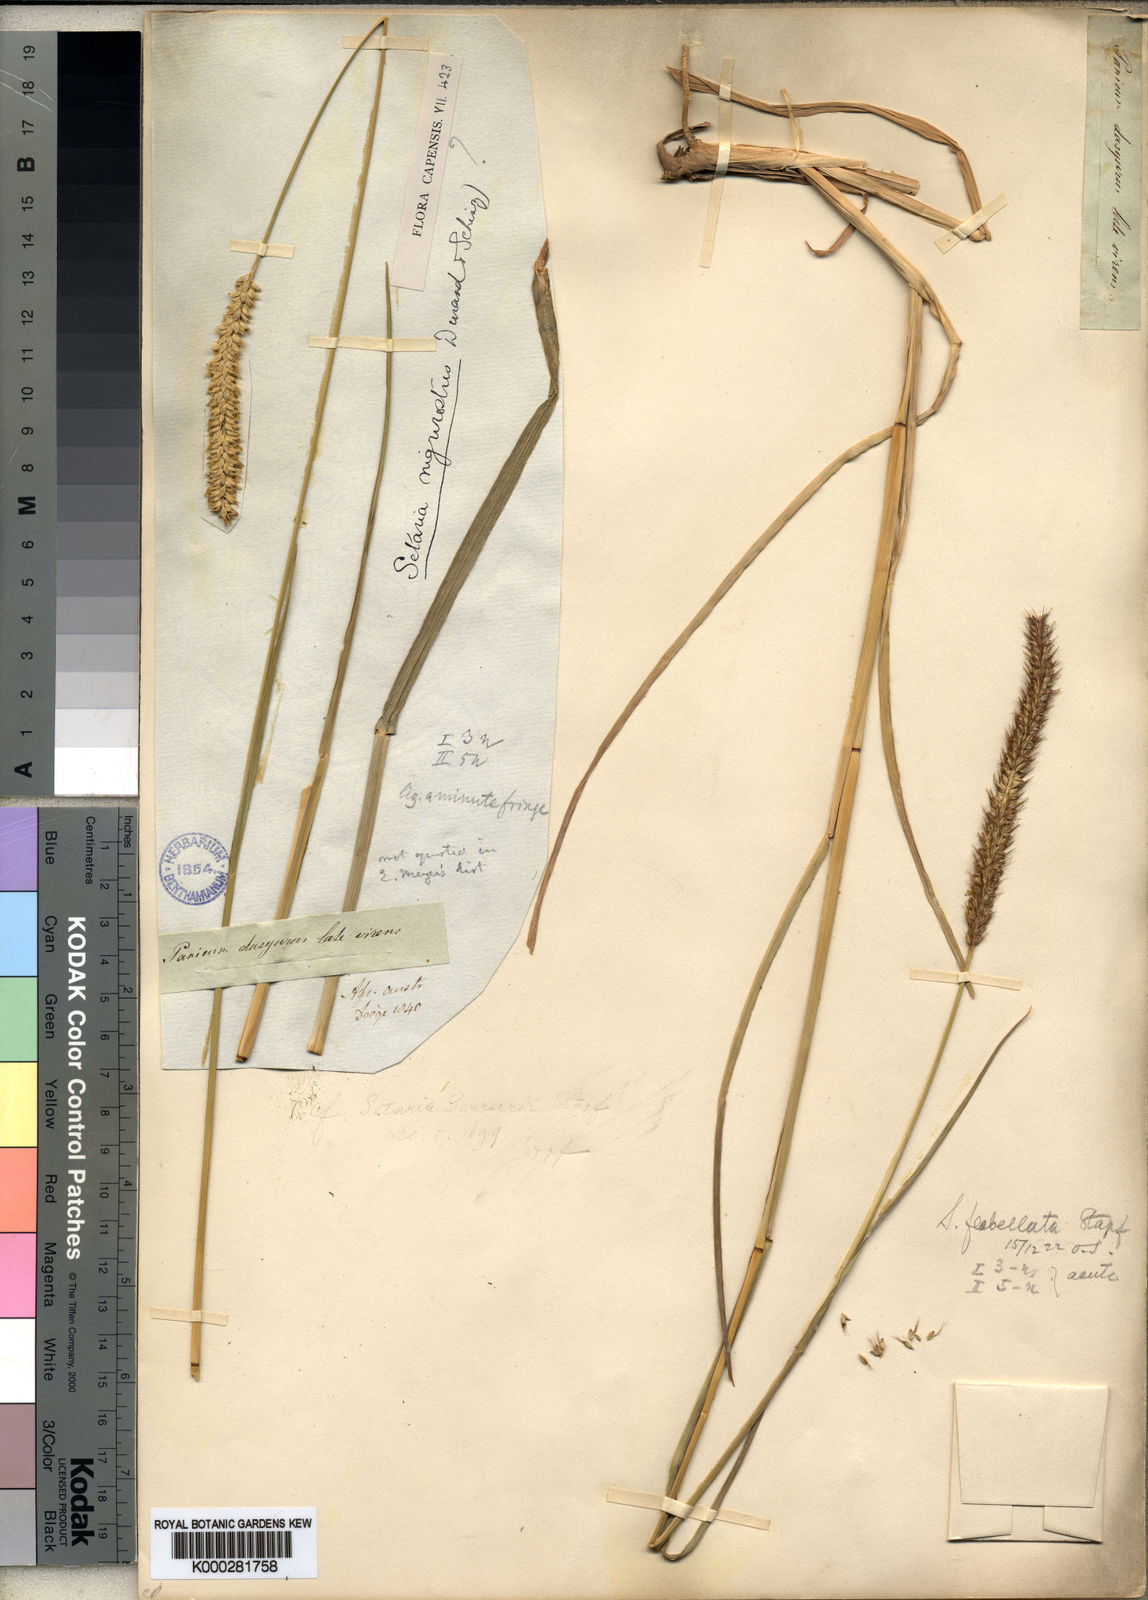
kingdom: Plantae
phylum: Tracheophyta
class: Liliopsida
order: Poales
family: Poaceae
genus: Setaria
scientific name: Setaria sphacelata
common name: African bristlegrass
